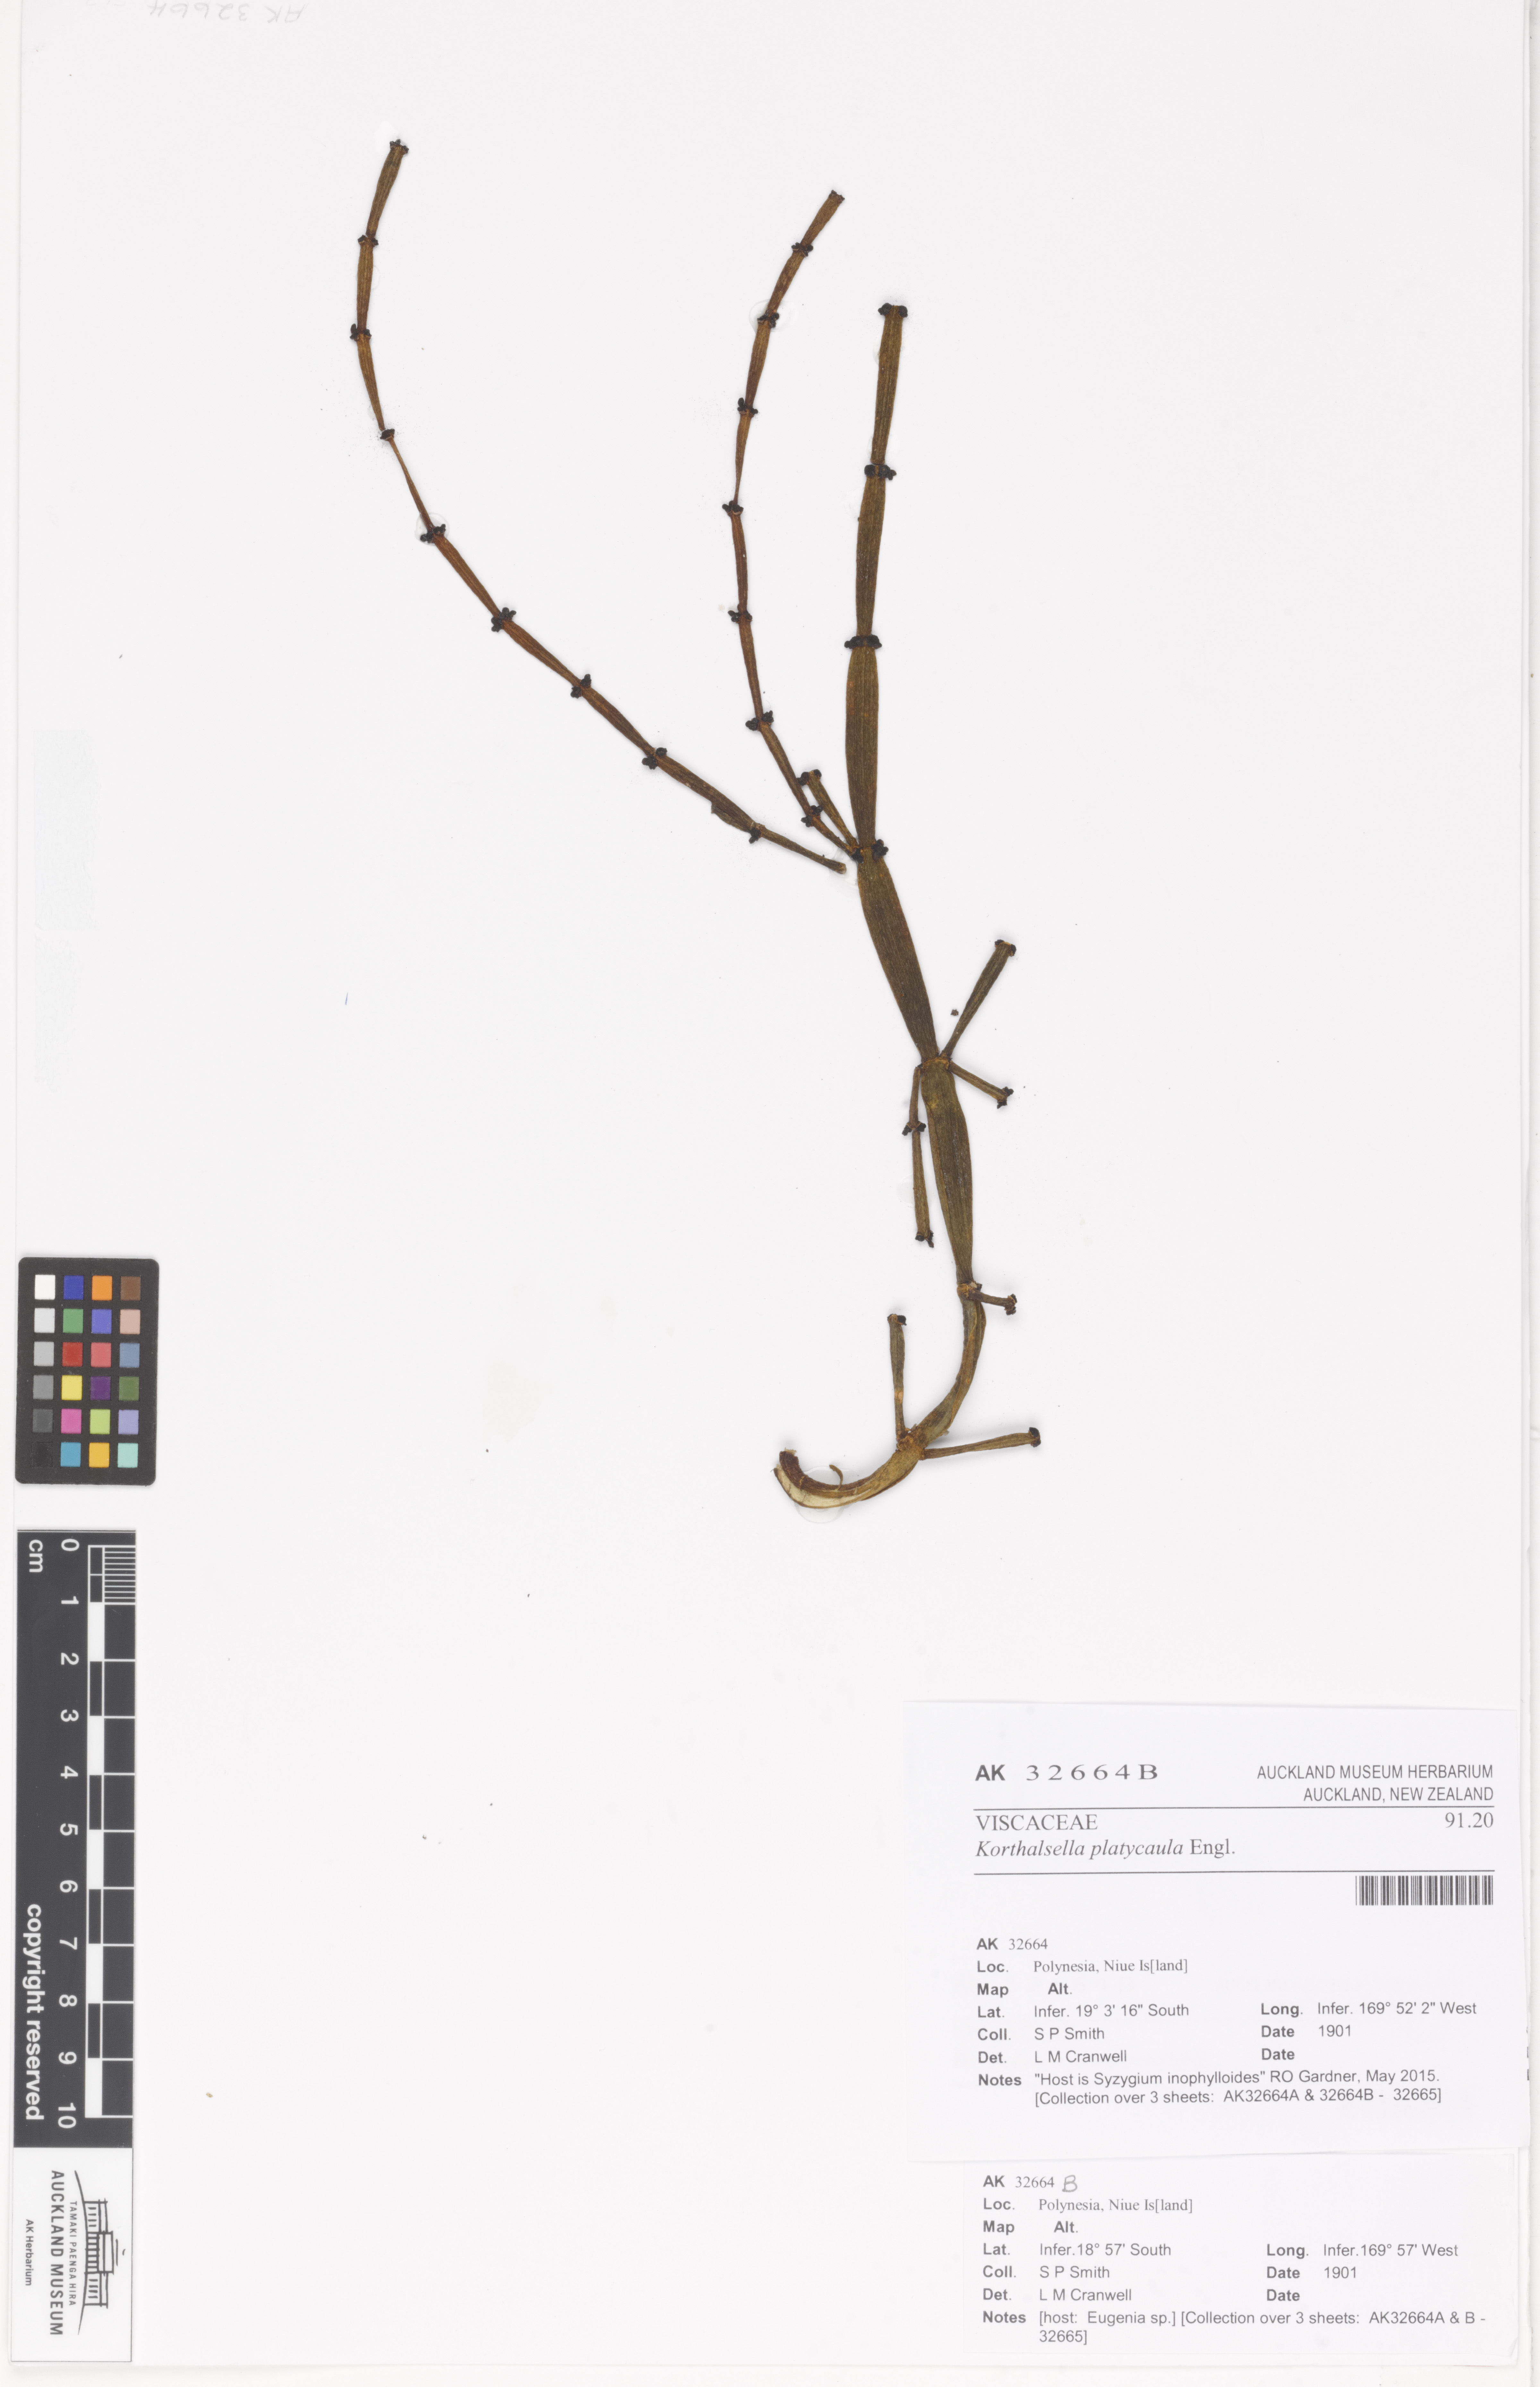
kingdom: Plantae
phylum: Tracheophyta
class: Magnoliopsida
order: Santalales
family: Viscaceae
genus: Korthalsella
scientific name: Korthalsella platycaula
